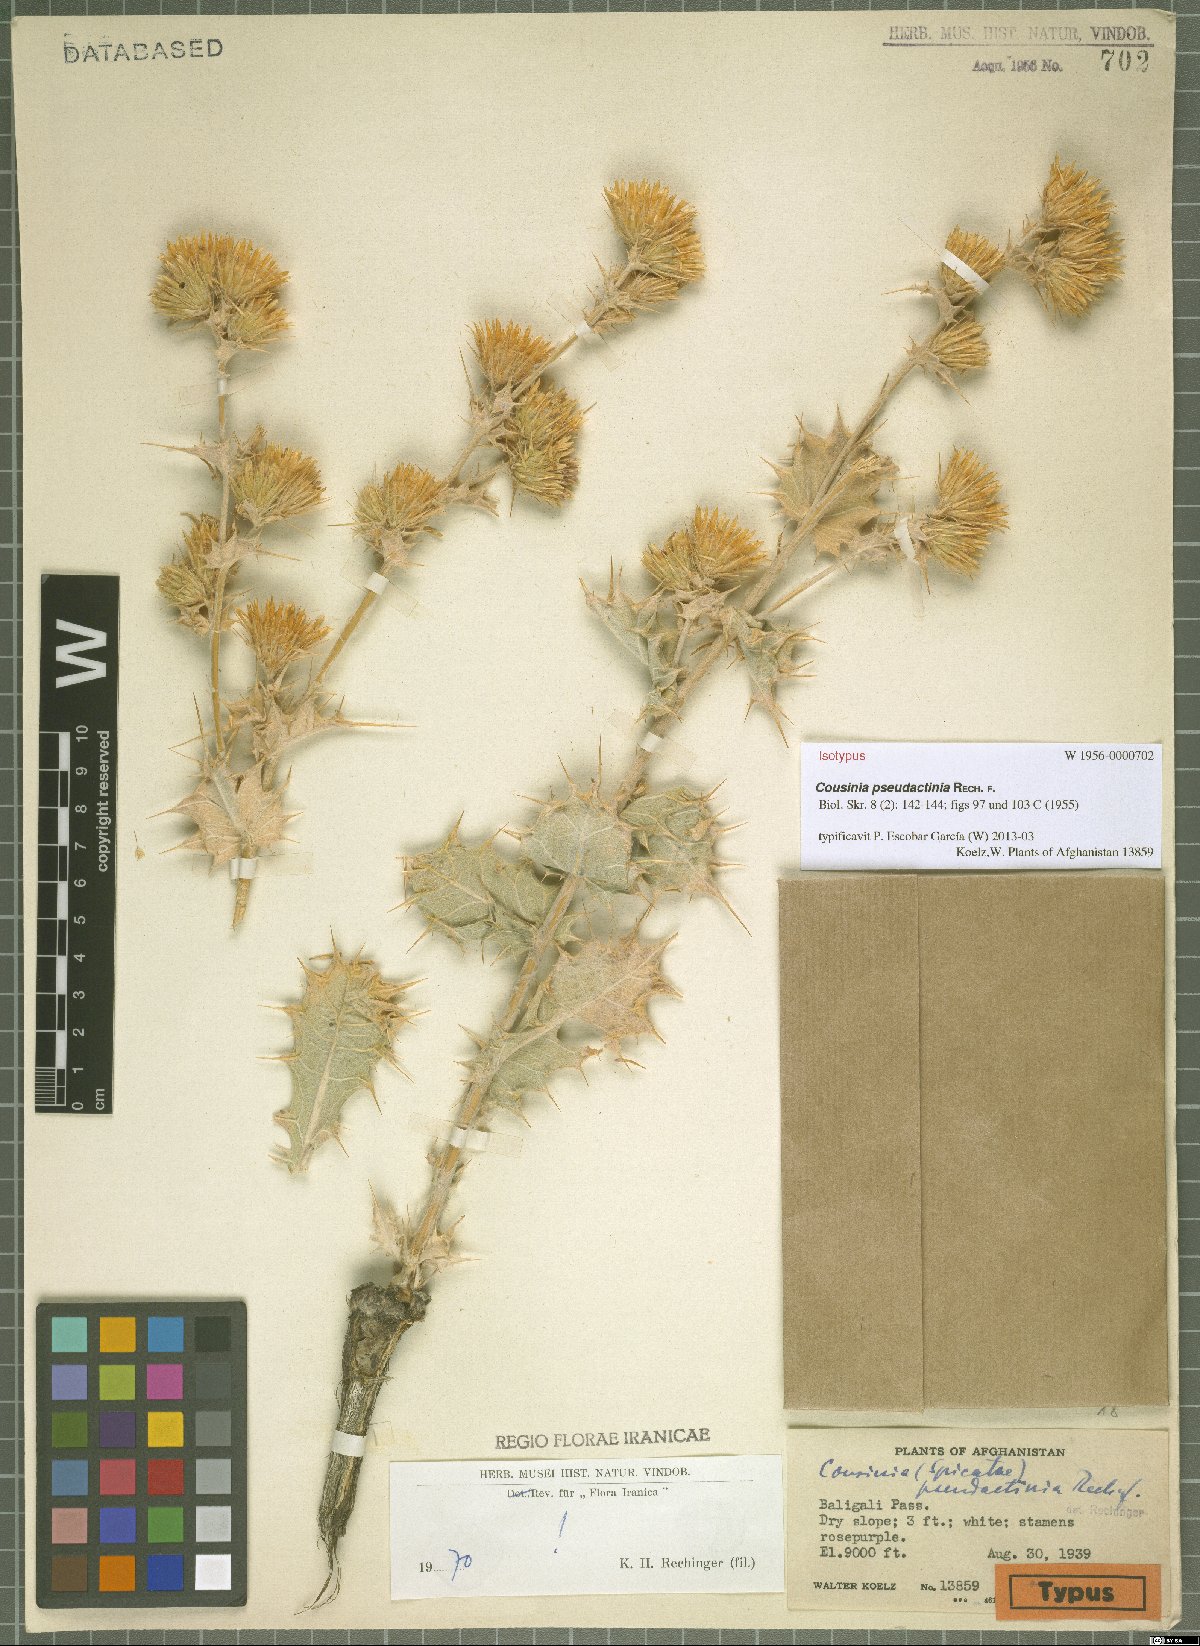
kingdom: Plantae
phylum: Tracheophyta
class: Magnoliopsida
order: Asterales
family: Asteraceae
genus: Cousinia
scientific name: Cousinia pseudactinia
